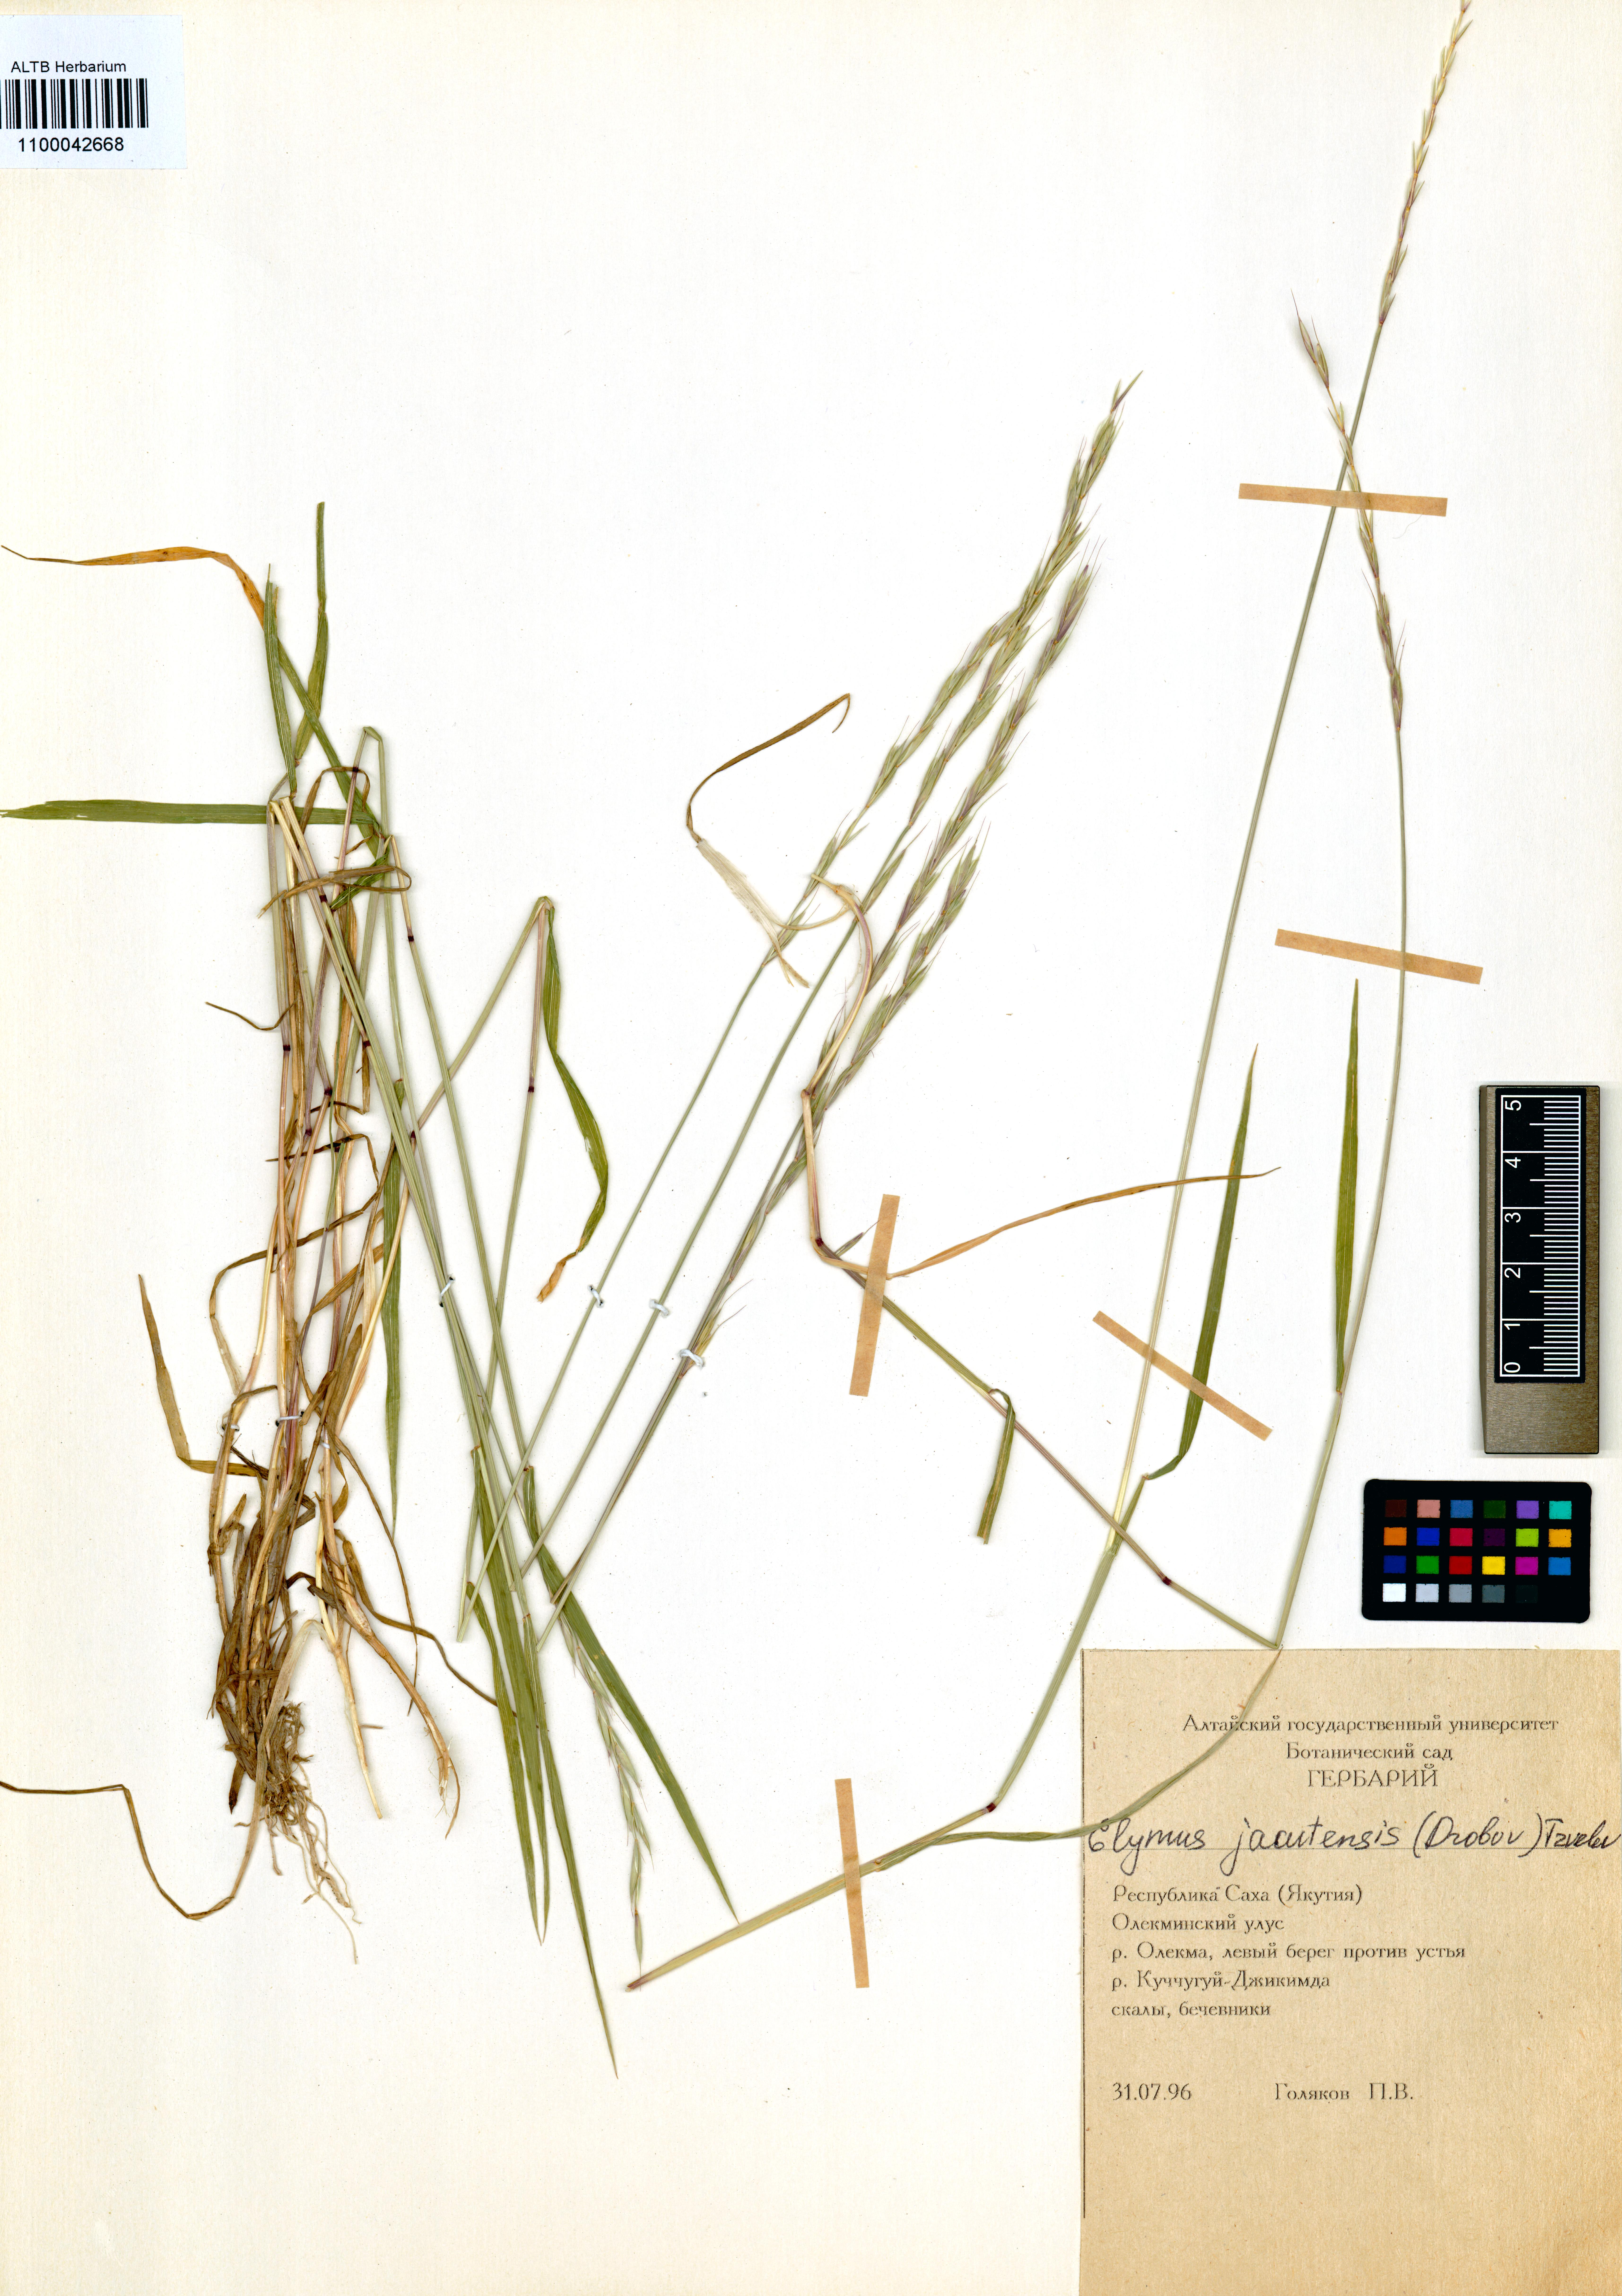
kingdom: Plantae
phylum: Tracheophyta
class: Liliopsida
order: Poales
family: Poaceae
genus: Elymus
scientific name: Elymus jacutensis
